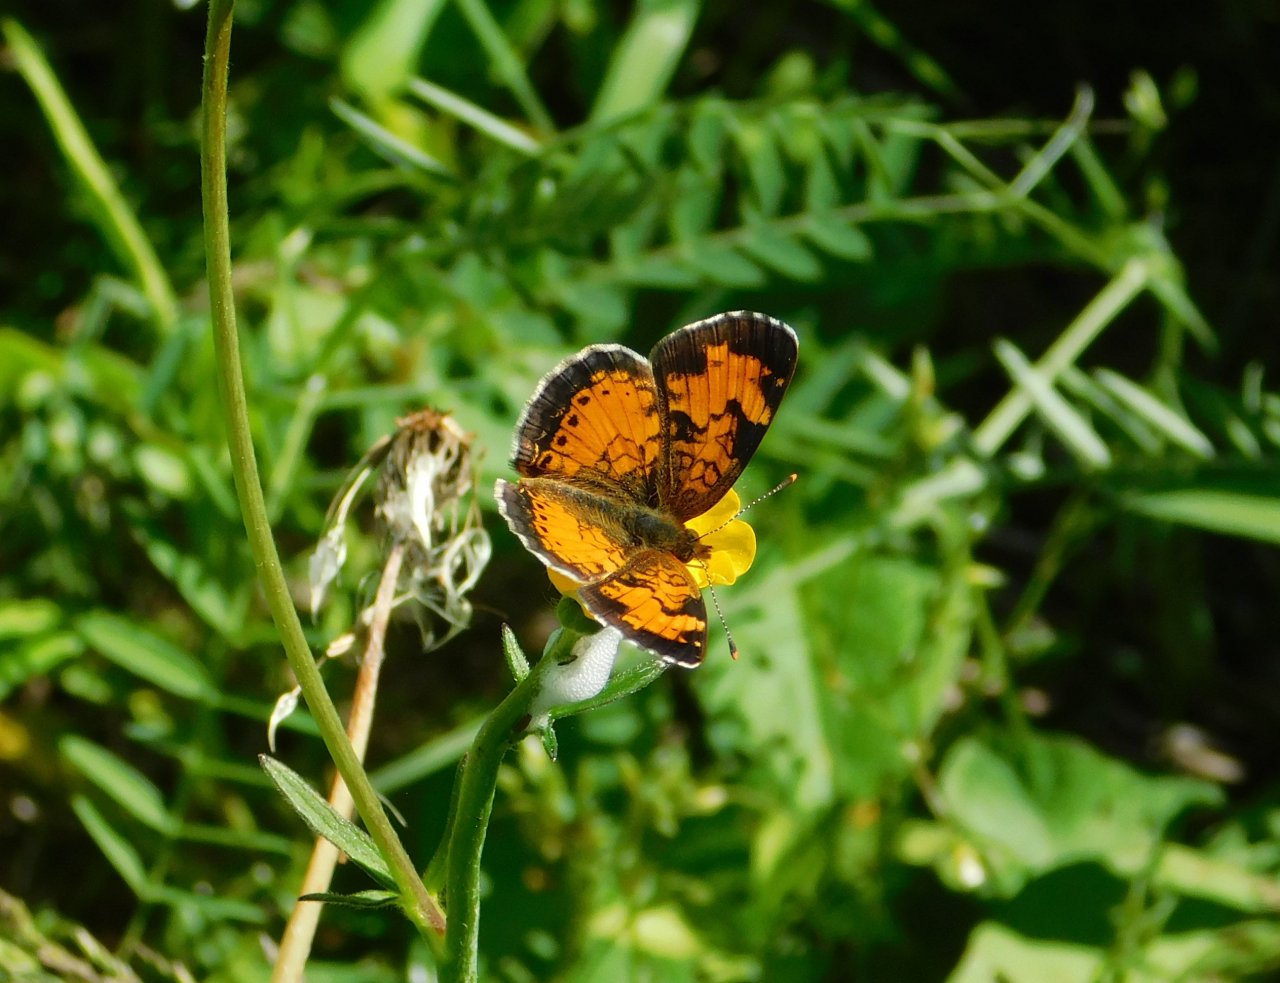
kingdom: Animalia
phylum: Arthropoda
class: Insecta
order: Lepidoptera
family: Nymphalidae
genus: Phyciodes
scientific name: Phyciodes tharos
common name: Northern Crescent
